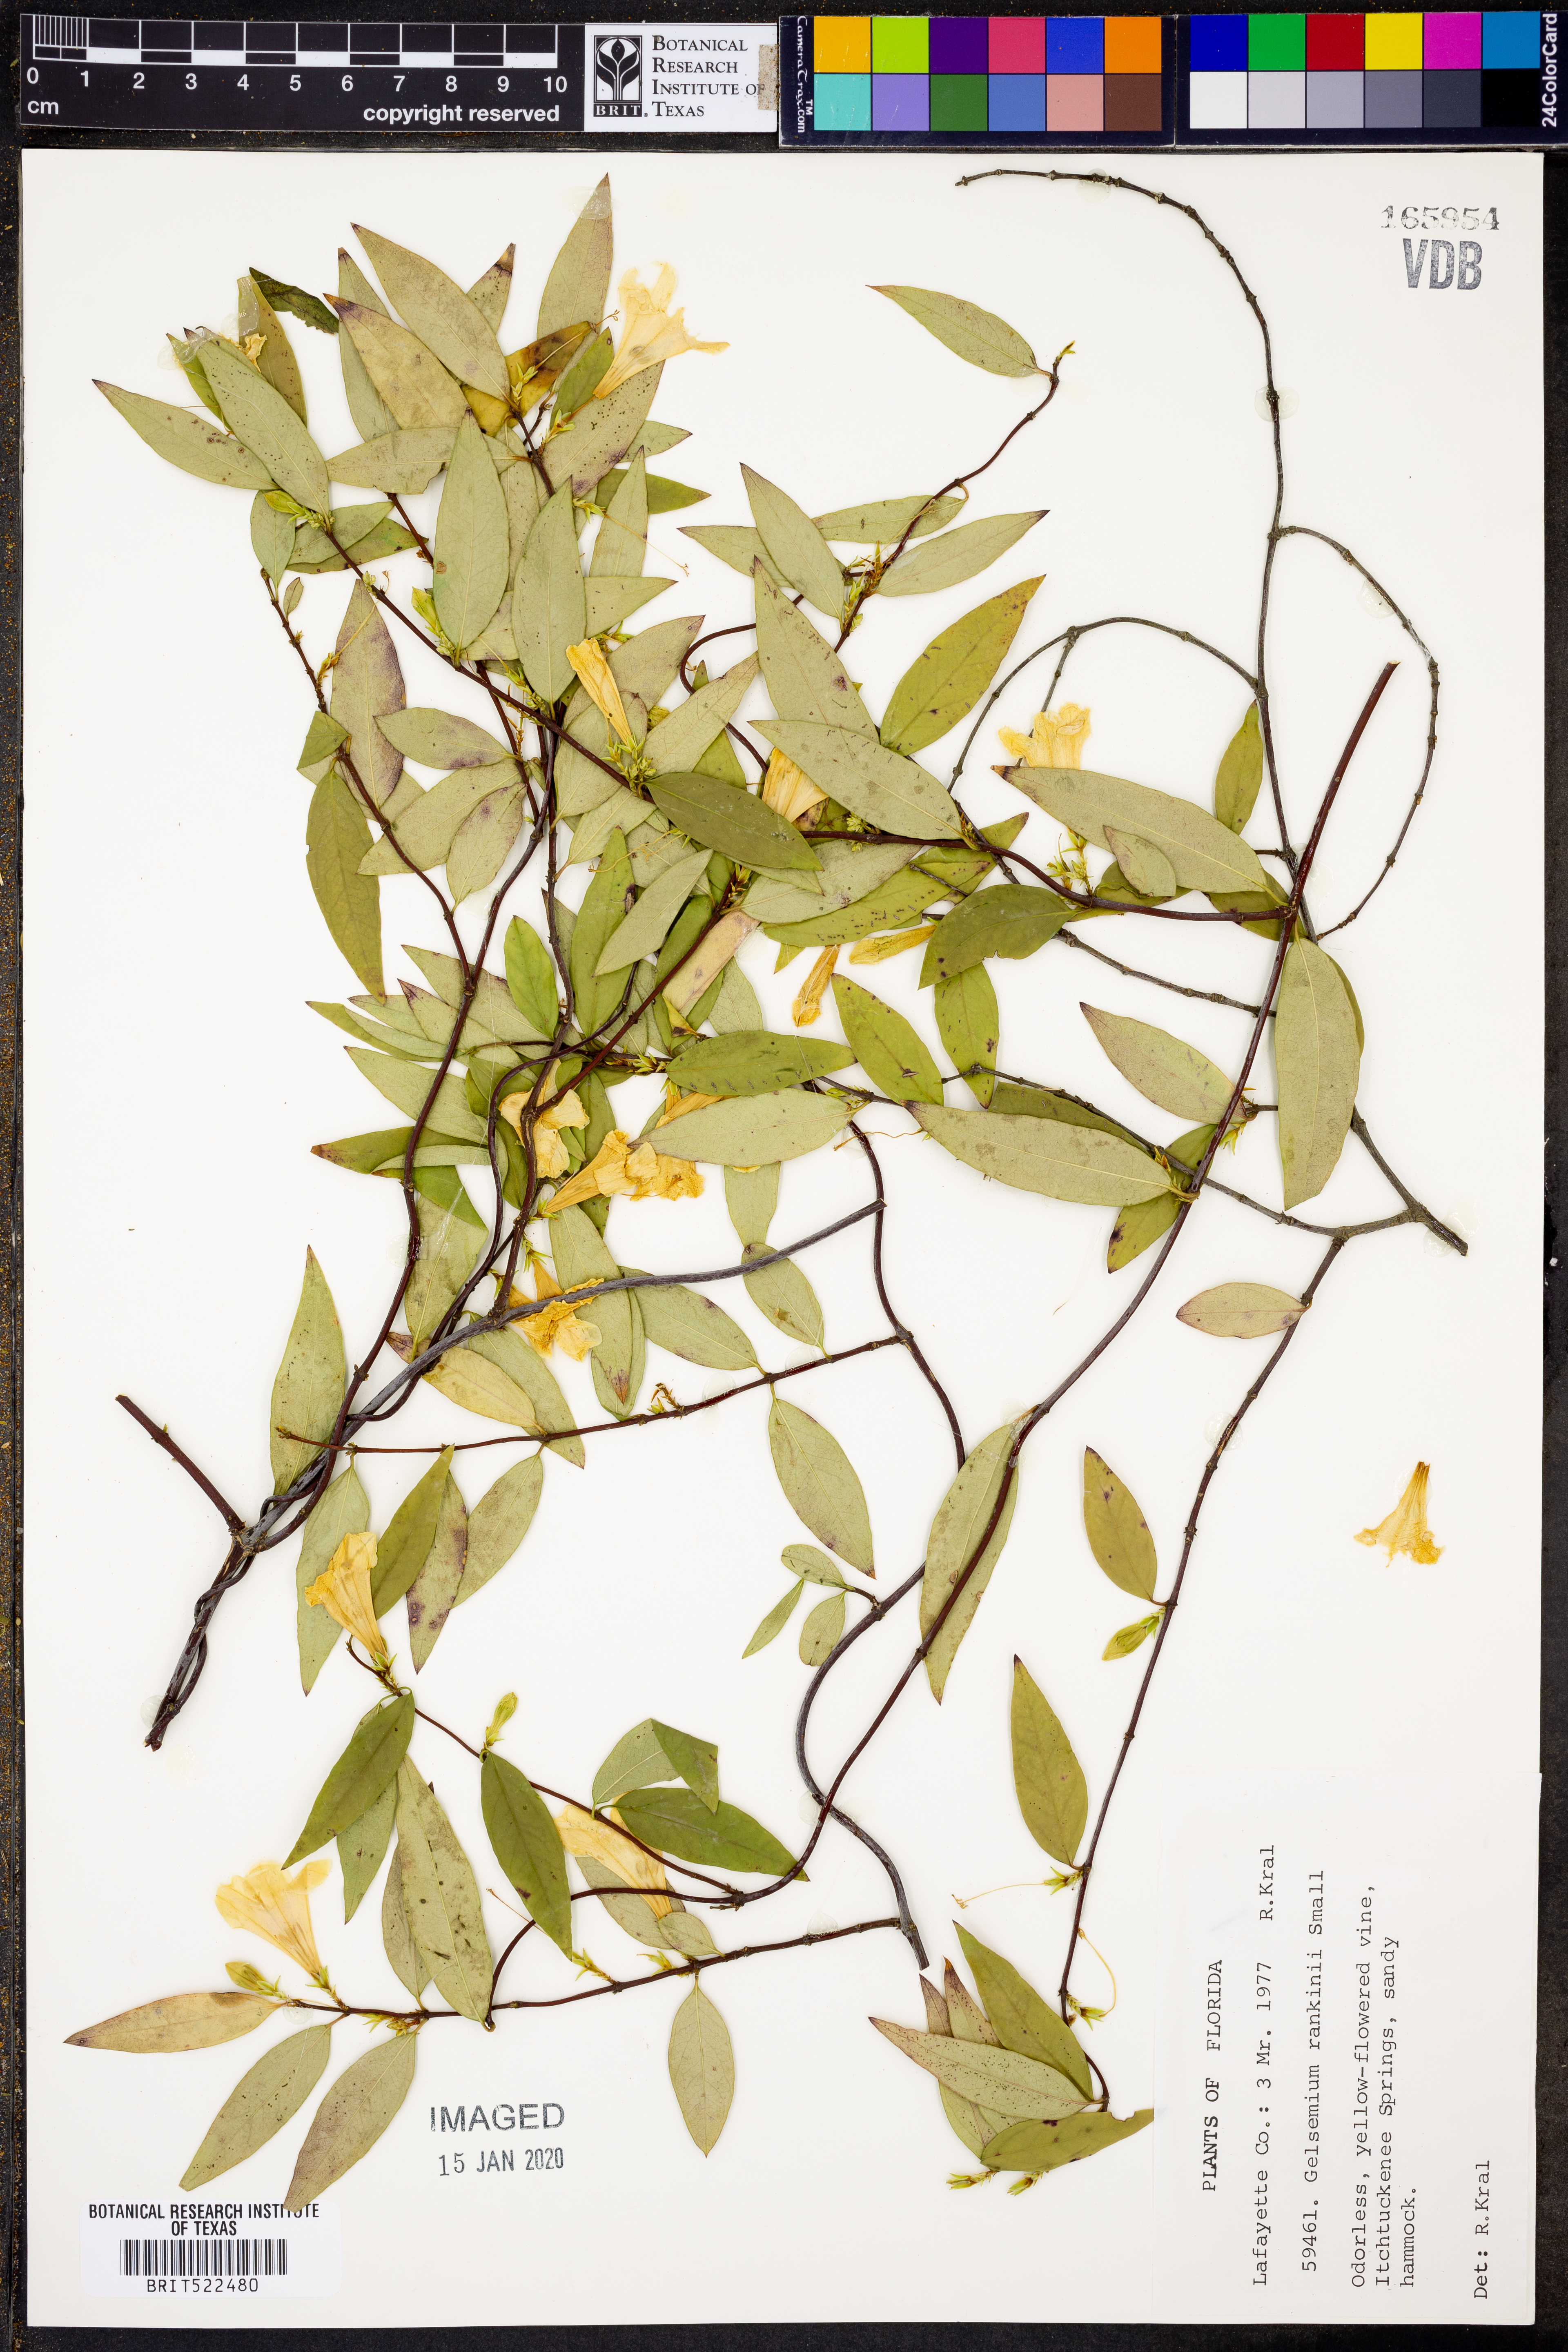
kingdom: Plantae
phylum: Tracheophyta
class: Magnoliopsida
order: Gentianales
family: Gelsemiaceae
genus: Gelsemium
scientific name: Gelsemium rankinii
